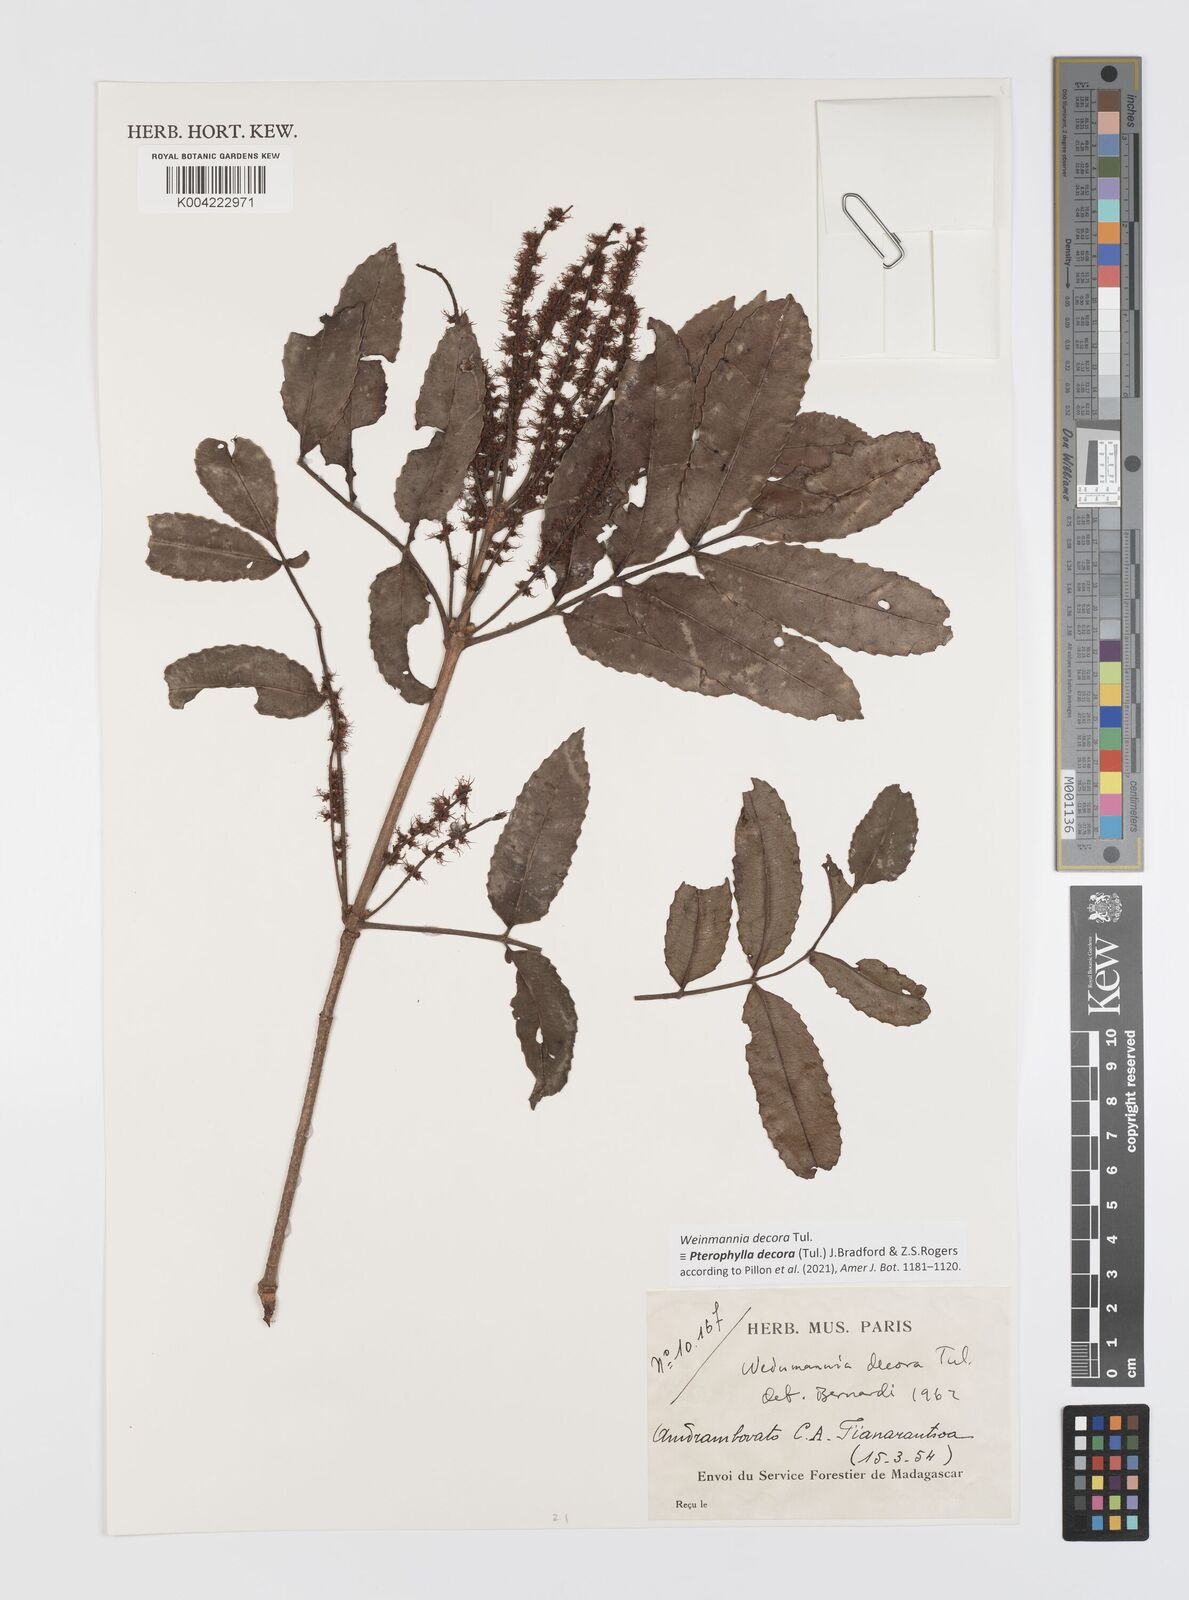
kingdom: Plantae
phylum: Tracheophyta
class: Magnoliopsida
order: Oxalidales
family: Cunoniaceae
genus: Pterophylla
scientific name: Pterophylla decora
